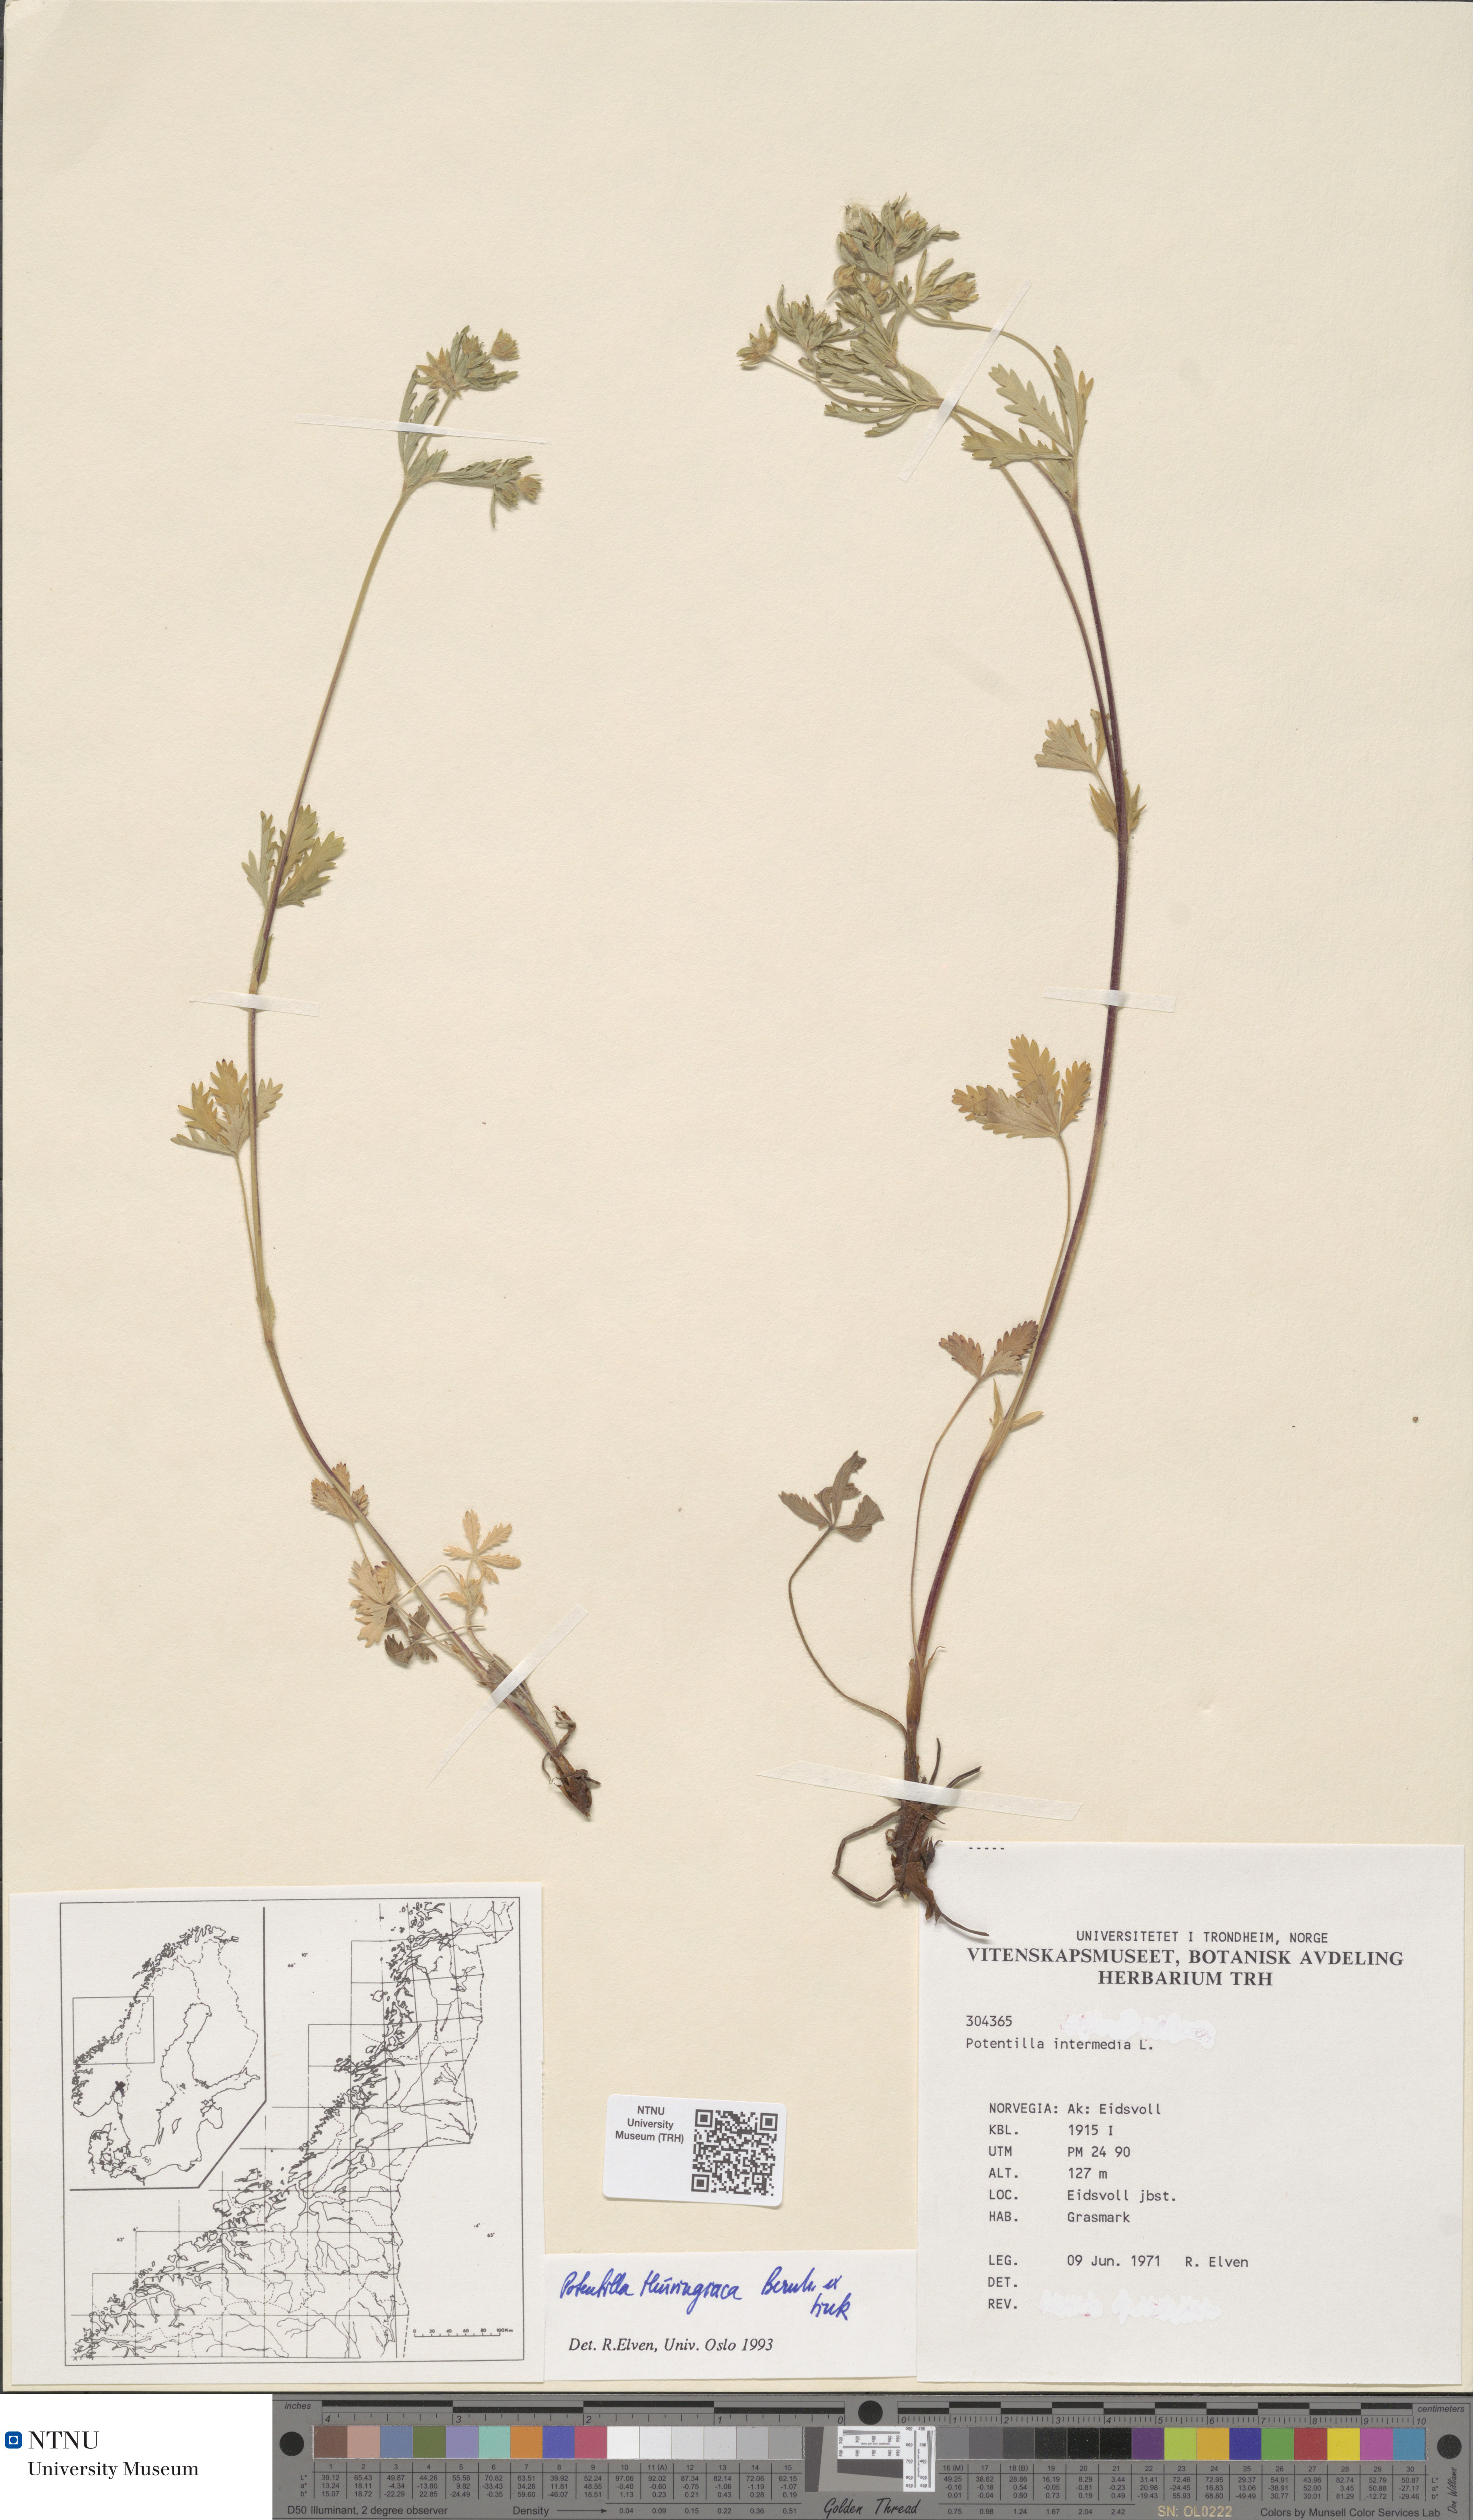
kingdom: Plantae
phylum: Tracheophyta
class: Magnoliopsida
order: Rosales
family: Rosaceae
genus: Potentilla
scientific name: Potentilla intermedia
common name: Downy cinquefoil
